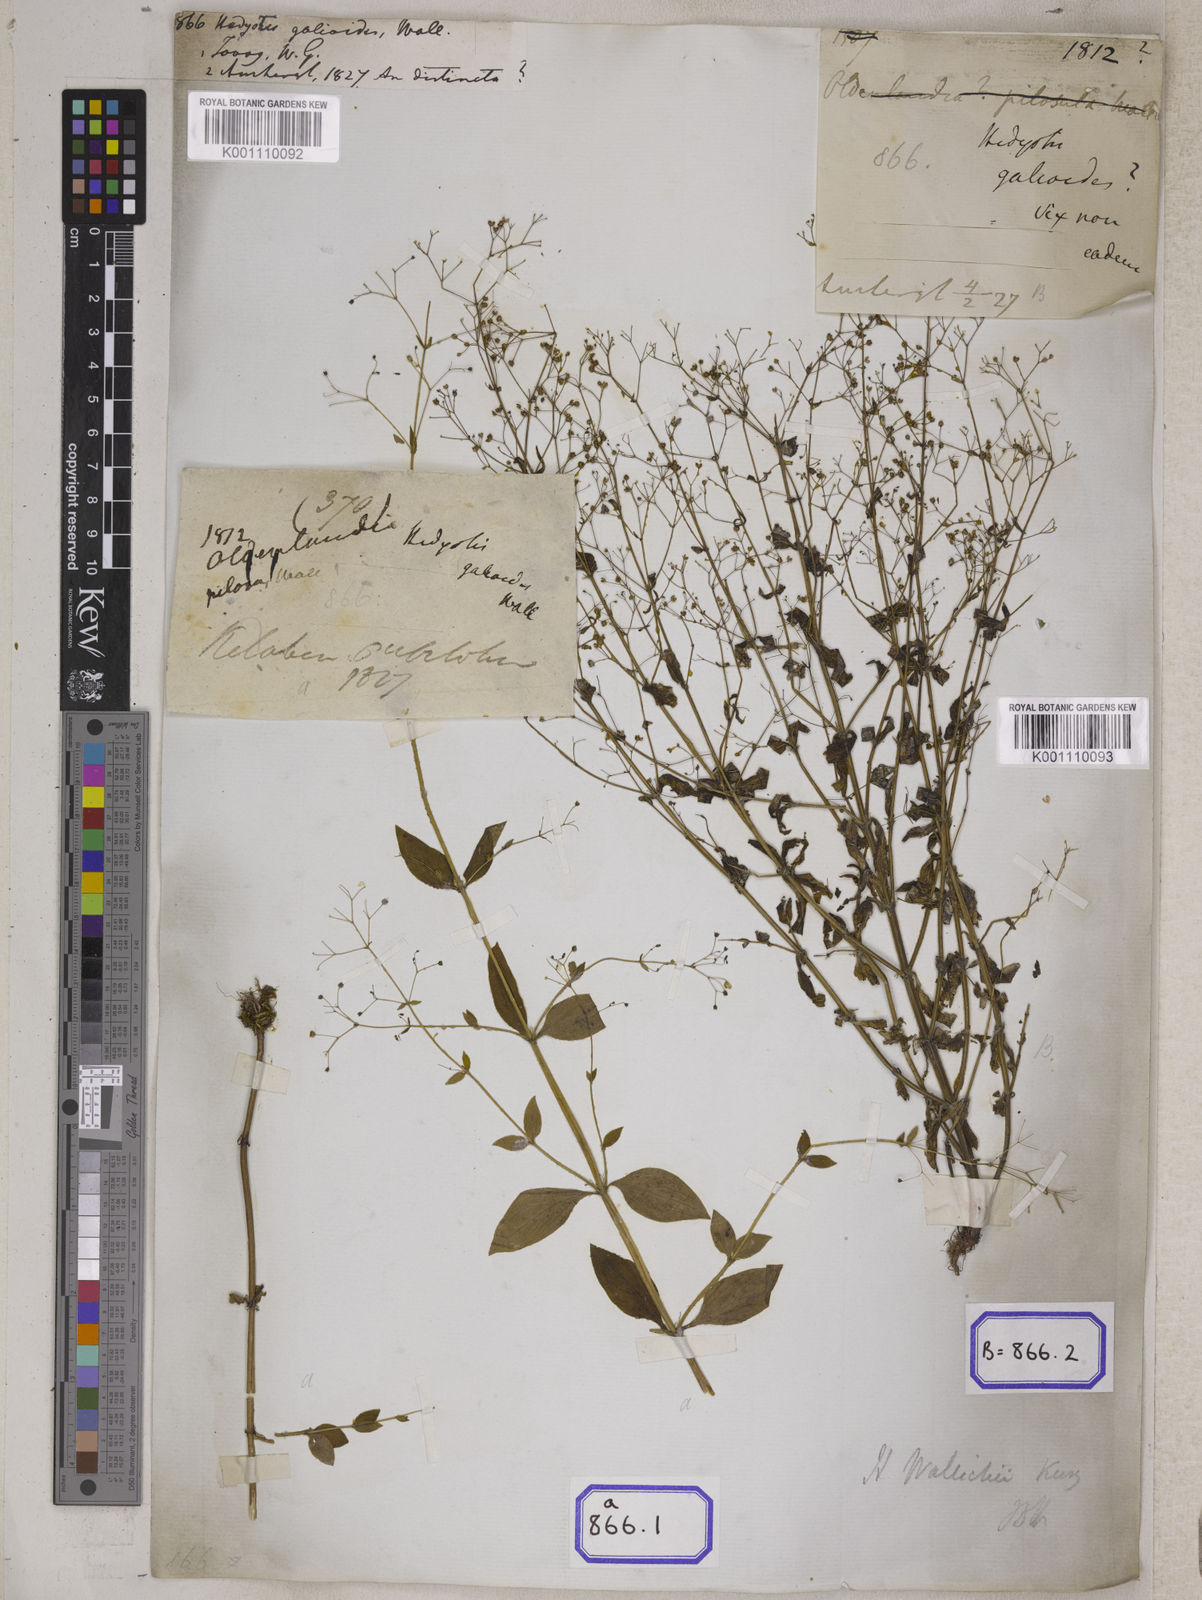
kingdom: Plantae
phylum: Tracheophyta
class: Magnoliopsida
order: Gentianales
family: Rubiaceae
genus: Hedyotis
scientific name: Hedyotis
